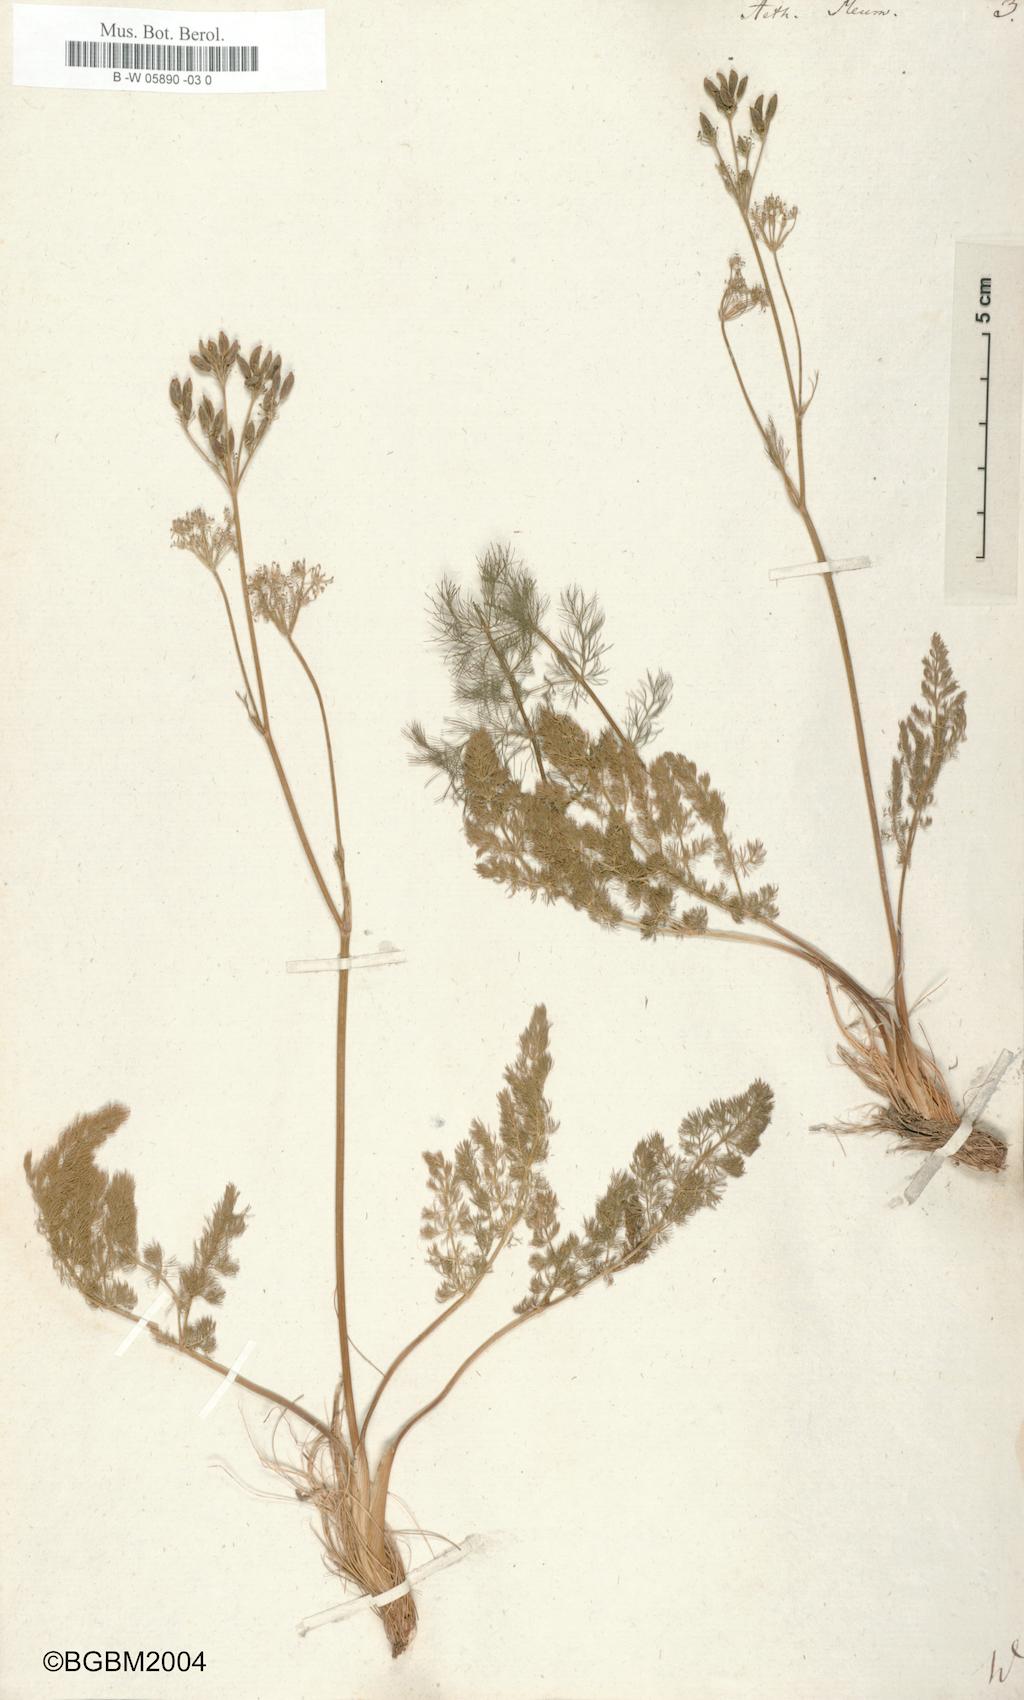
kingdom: Plantae
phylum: Tracheophyta
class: Magnoliopsida
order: Apiales
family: Apiaceae
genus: Meum
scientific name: Meum athamanticum
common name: Spignel
